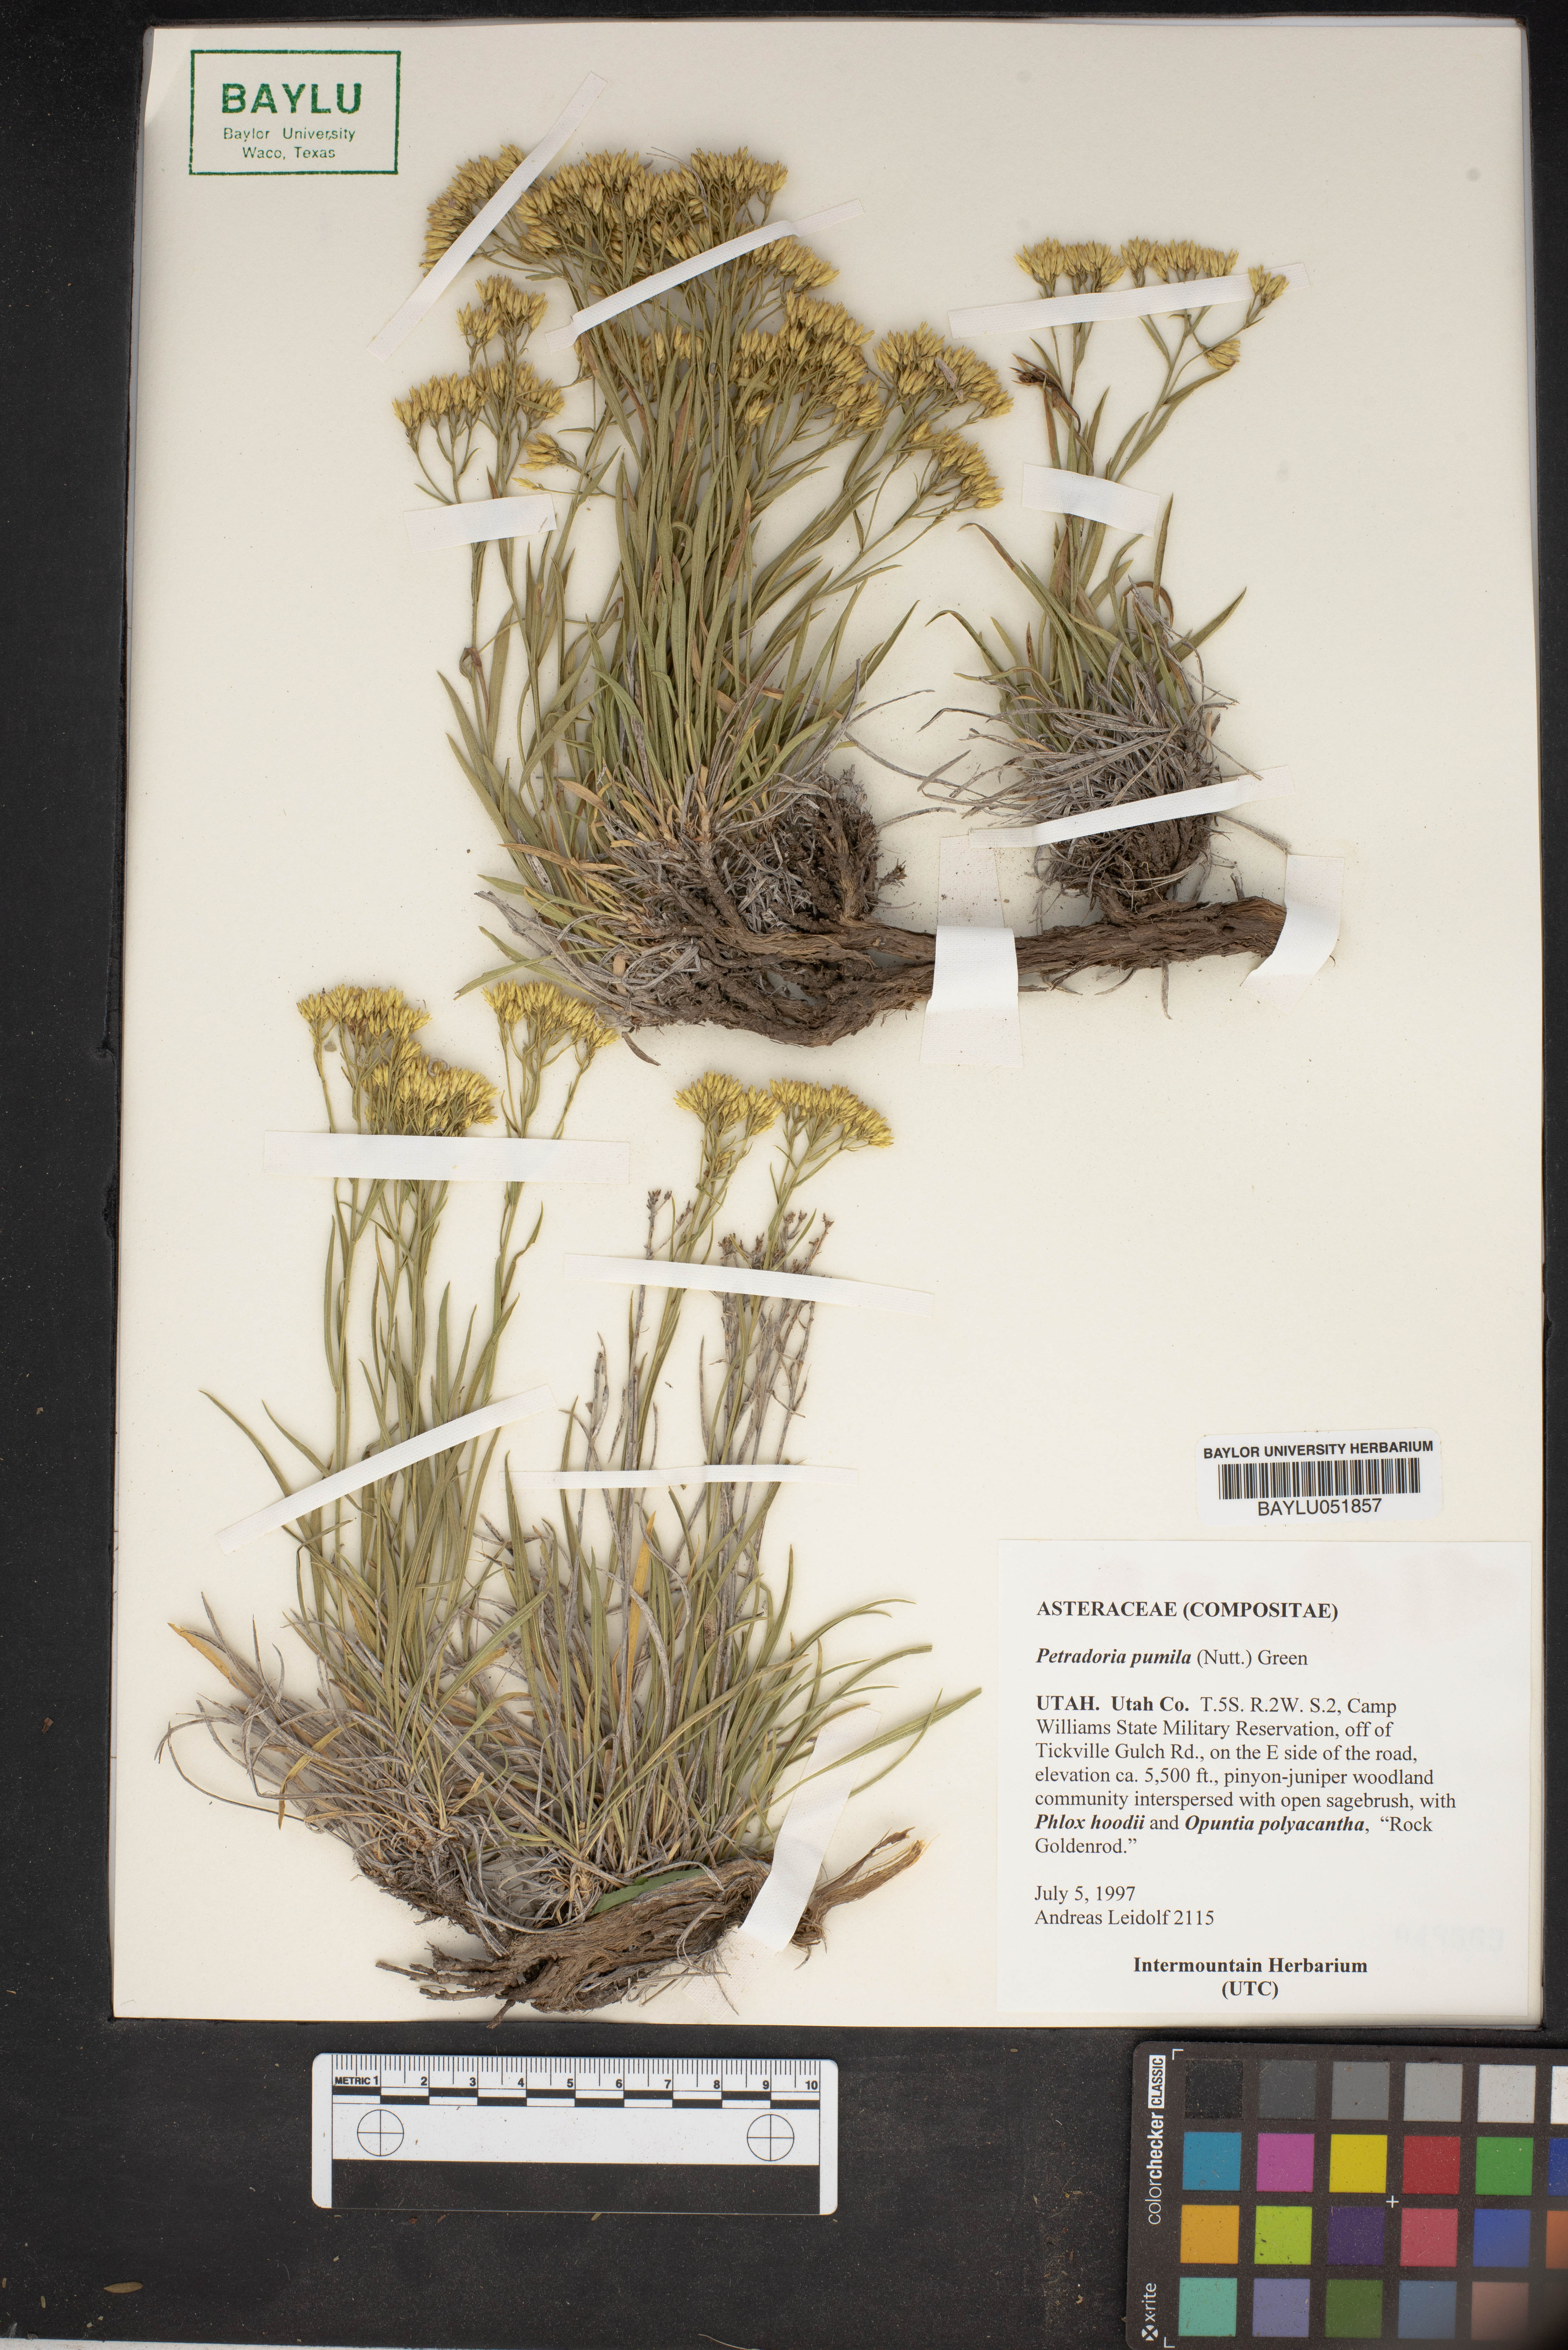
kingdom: Plantae
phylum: Tracheophyta
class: Magnoliopsida
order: Asterales
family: Asteraceae
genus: Petradoria
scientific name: Petradoria pumila
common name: Rock-goldenrod
